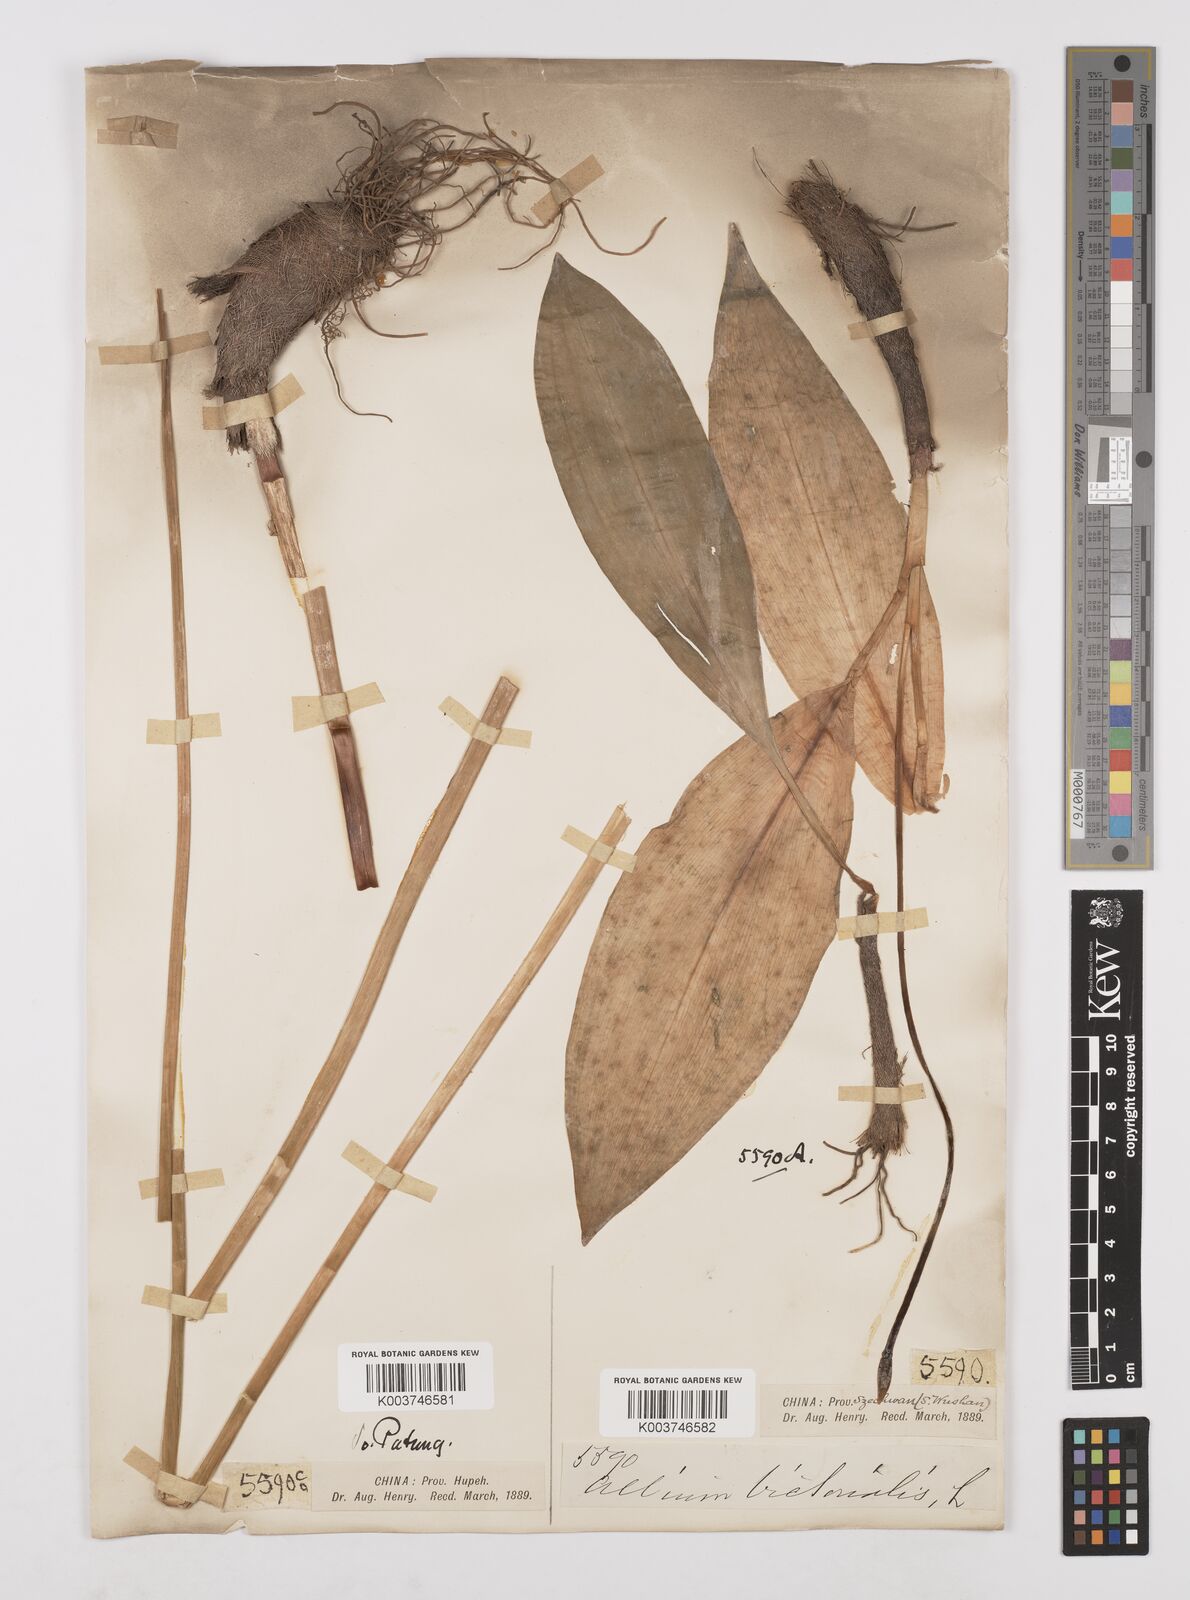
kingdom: Plantae
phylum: Tracheophyta
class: Liliopsida
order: Asparagales
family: Amaryllidaceae
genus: Allium
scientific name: Allium victorialis
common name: Alpine leek
